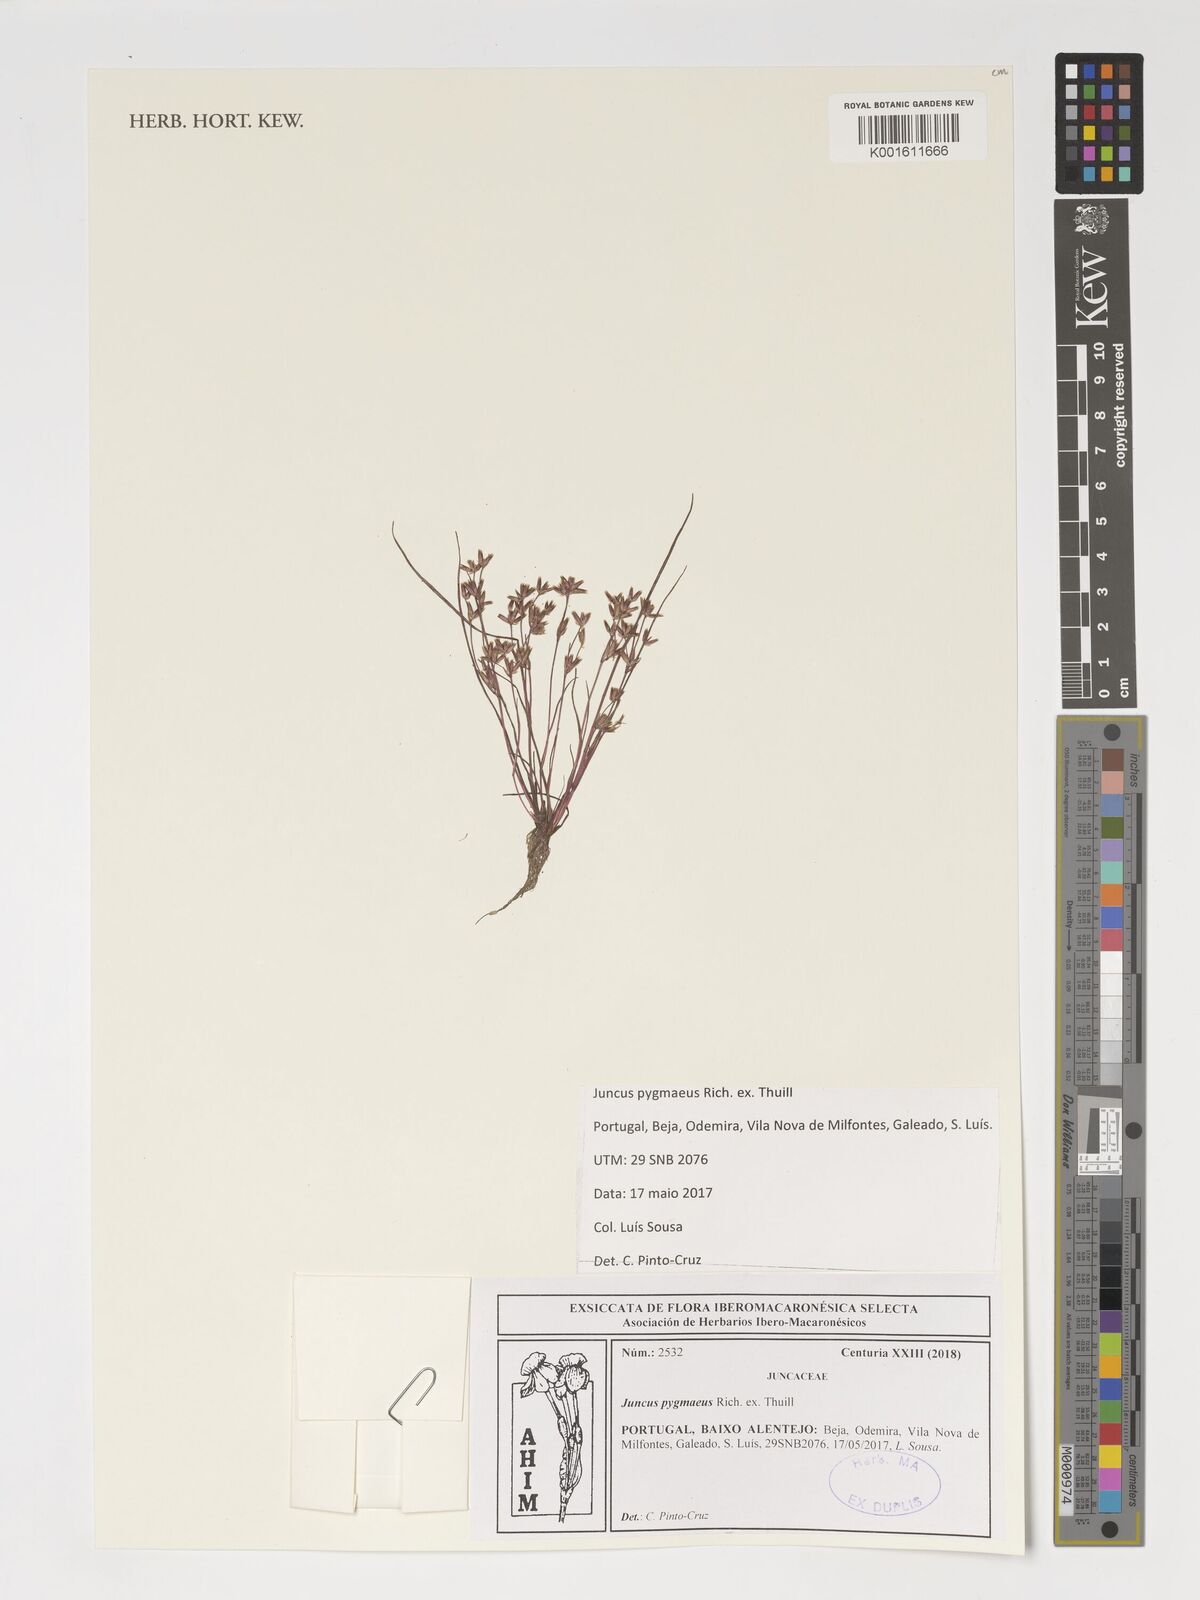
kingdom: Plantae
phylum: Tracheophyta
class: Liliopsida
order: Poales
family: Juncaceae
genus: Juncus
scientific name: Juncus pygmaeus
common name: Pigmy rush
